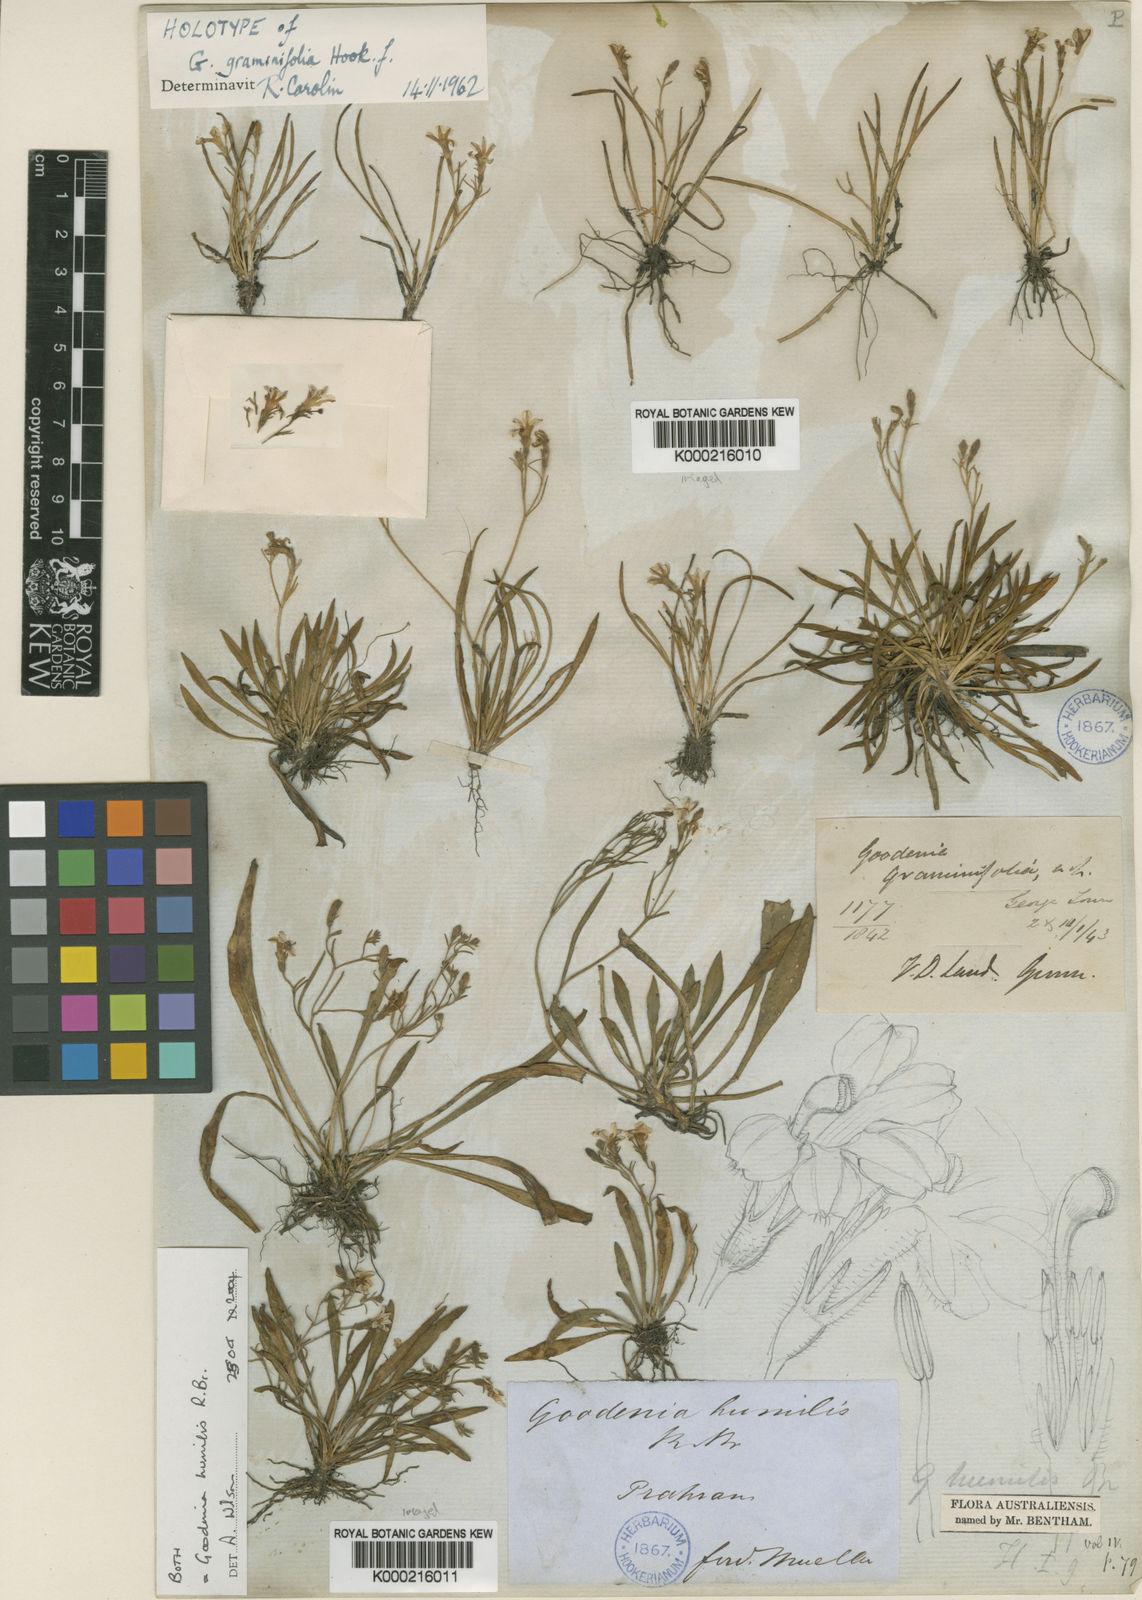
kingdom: Plantae
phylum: Tracheophyta
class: Magnoliopsida
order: Asterales
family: Goodeniaceae
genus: Goodenia
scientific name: Goodenia humilis
